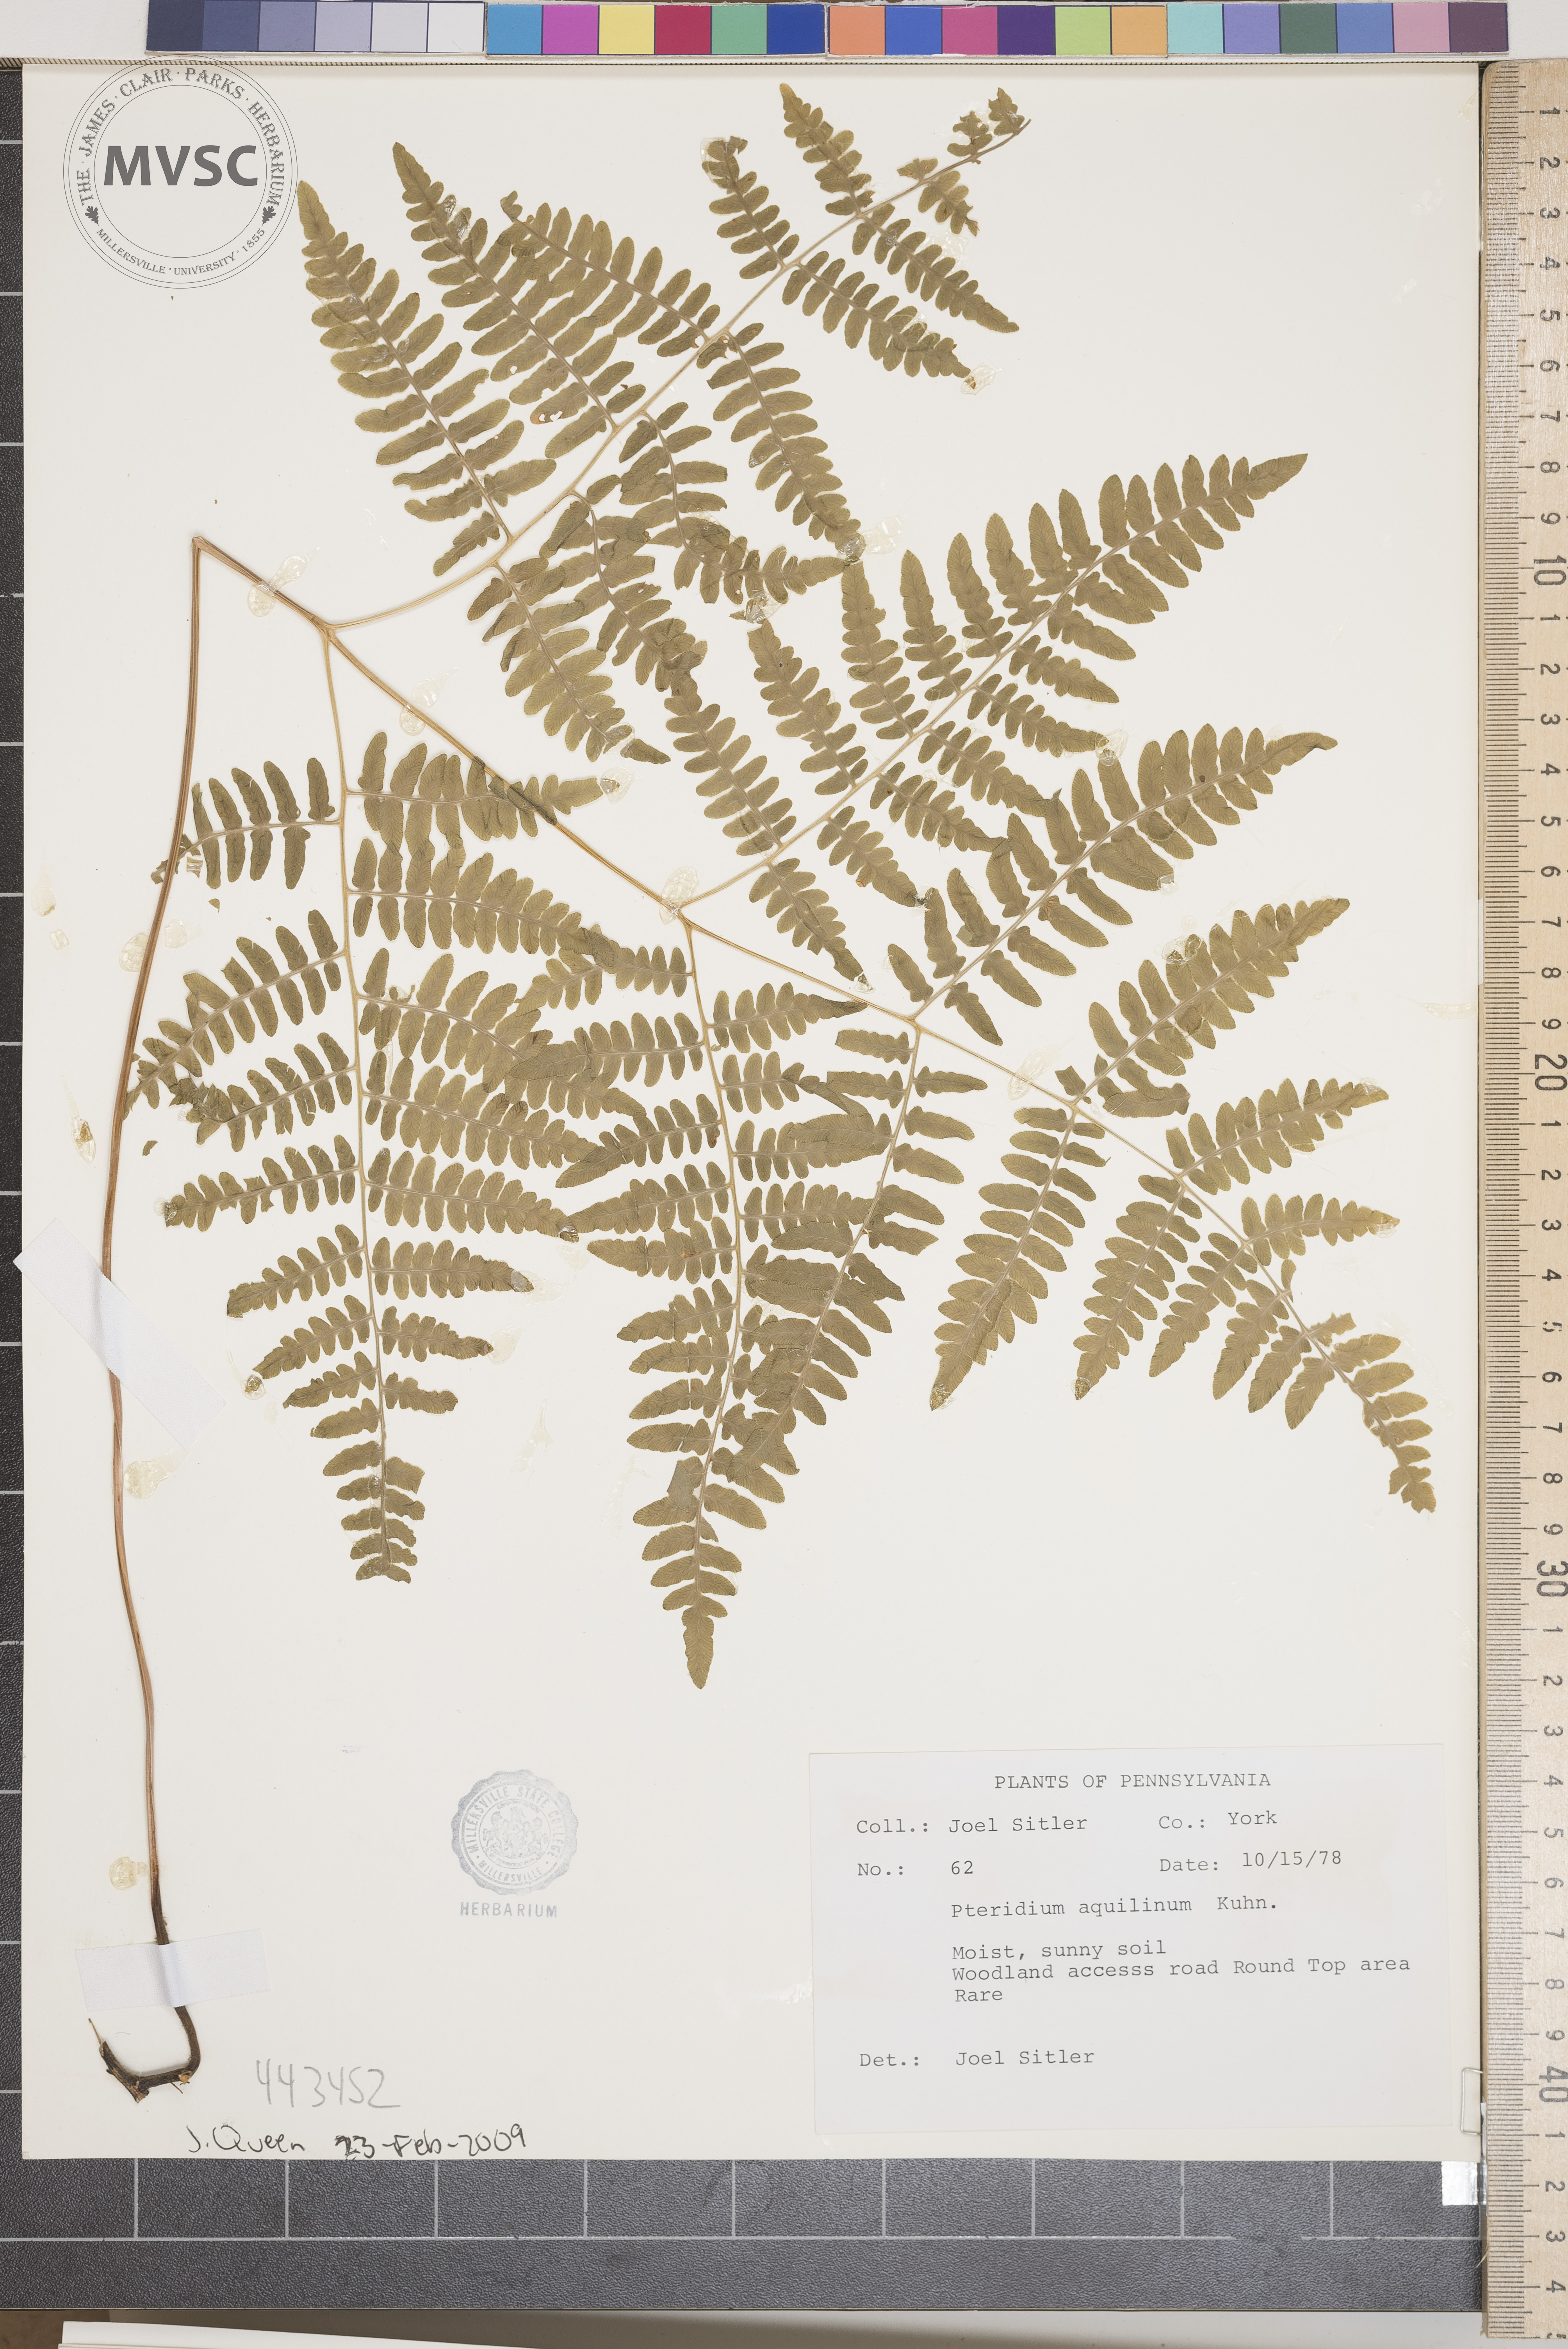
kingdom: Plantae
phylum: Tracheophyta
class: Polypodiopsida
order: Polypodiales
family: Dennstaedtiaceae
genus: Pteridium
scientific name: Pteridium aquilinum
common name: Bracken
